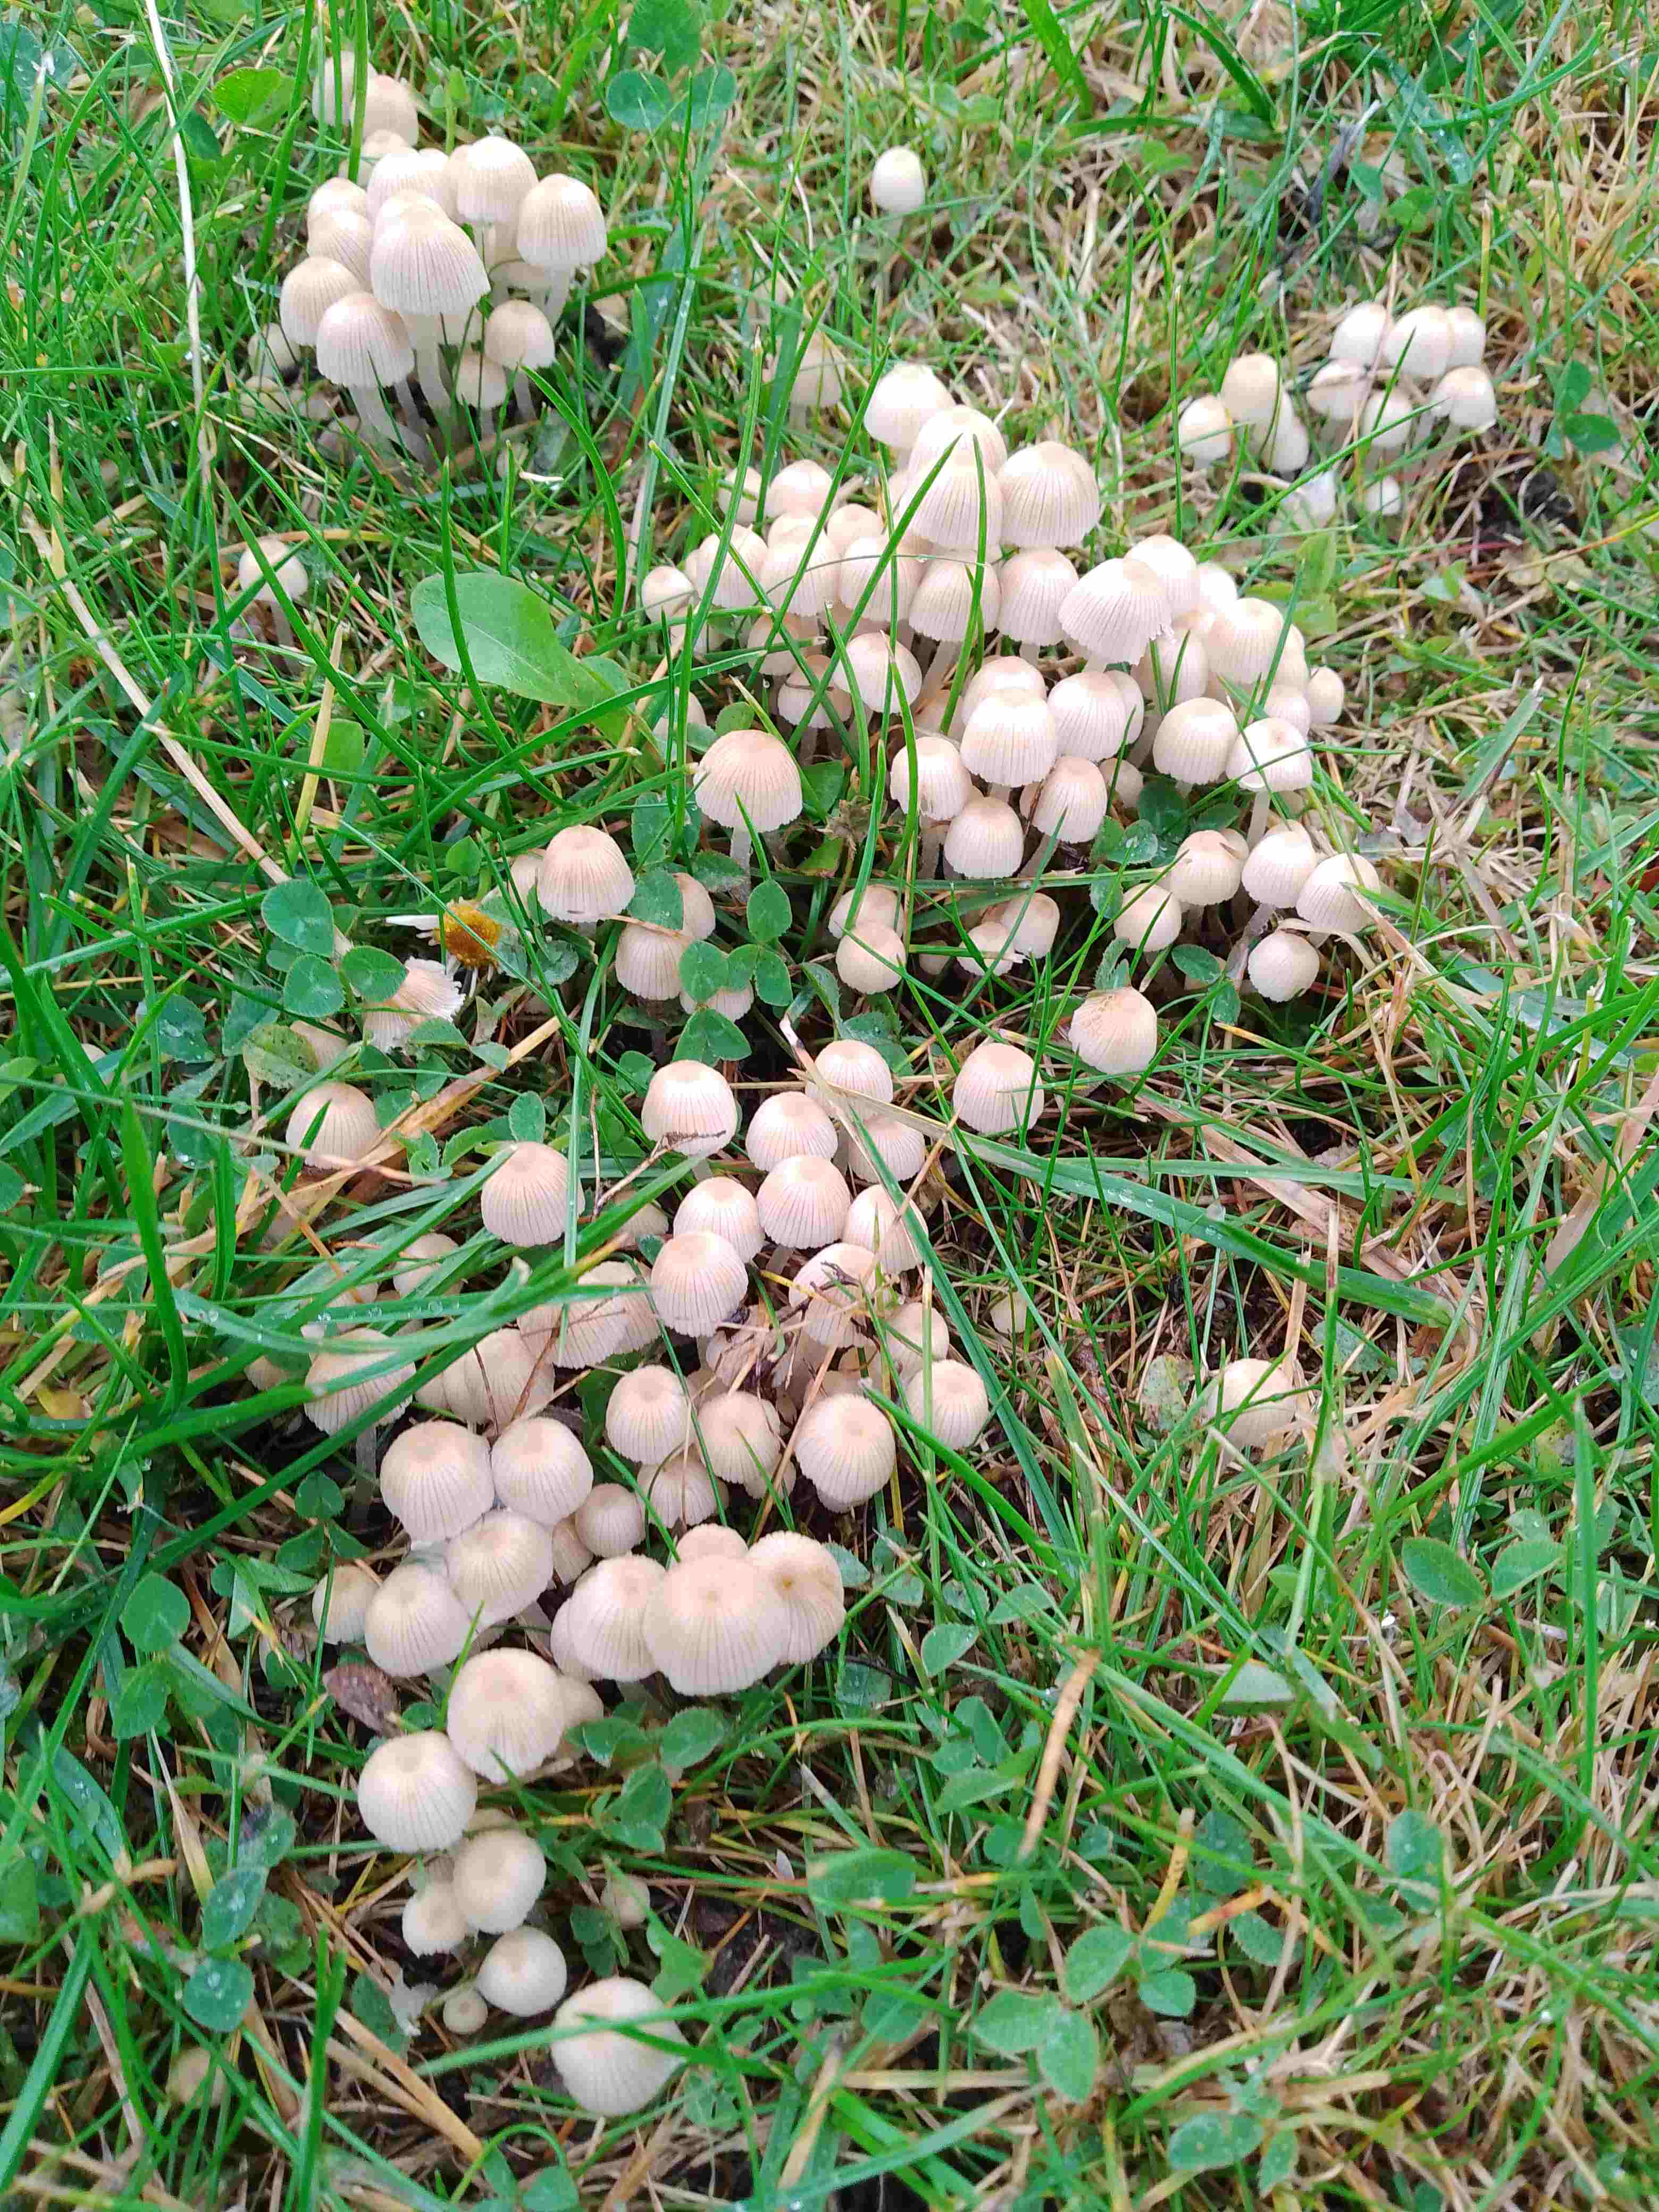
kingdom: Fungi
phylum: Basidiomycota
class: Agaricomycetes
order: Agaricales
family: Psathyrellaceae
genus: Coprinellus
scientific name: Coprinellus disseminatus
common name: bredsået blækhat
